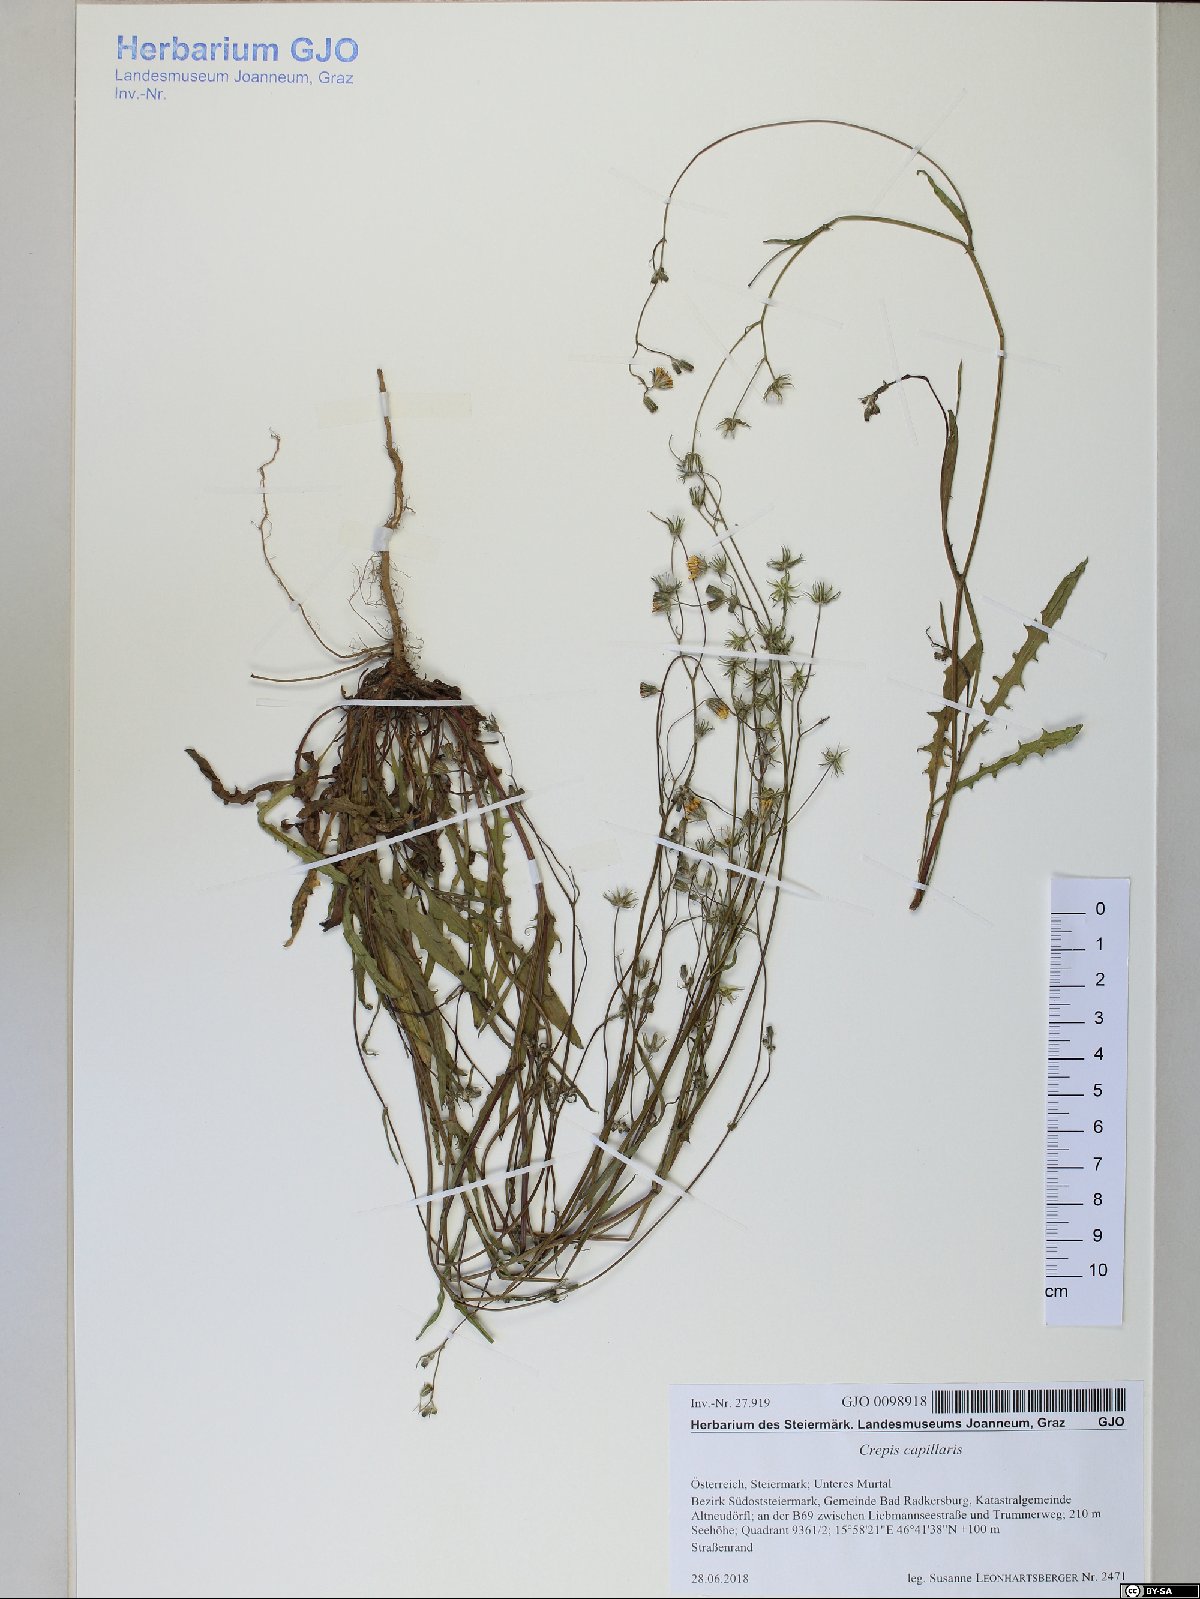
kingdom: Plantae
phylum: Tracheophyta
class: Magnoliopsida
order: Asterales
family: Asteraceae
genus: Crepis
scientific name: Crepis capillaris
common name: Smooth hawksbeard
